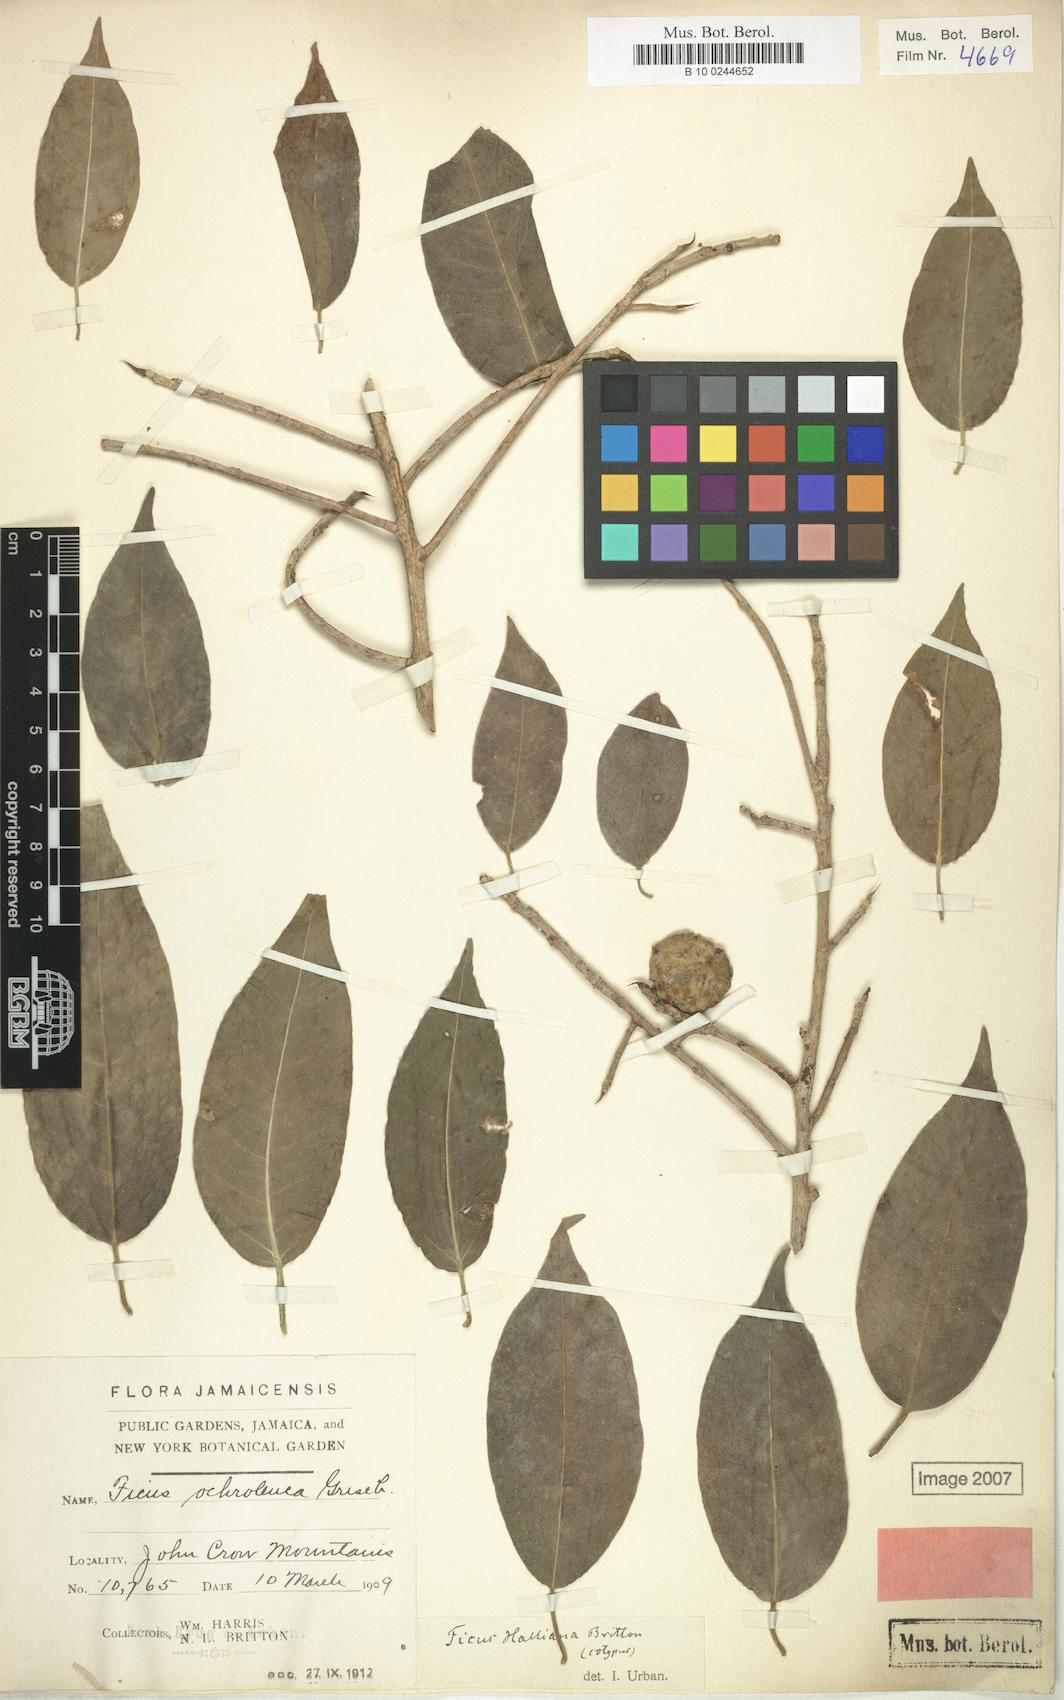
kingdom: Plantae
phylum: Tracheophyta
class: Magnoliopsida
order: Rosales
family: Moraceae
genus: Ficus
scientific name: Ficus pertusa
